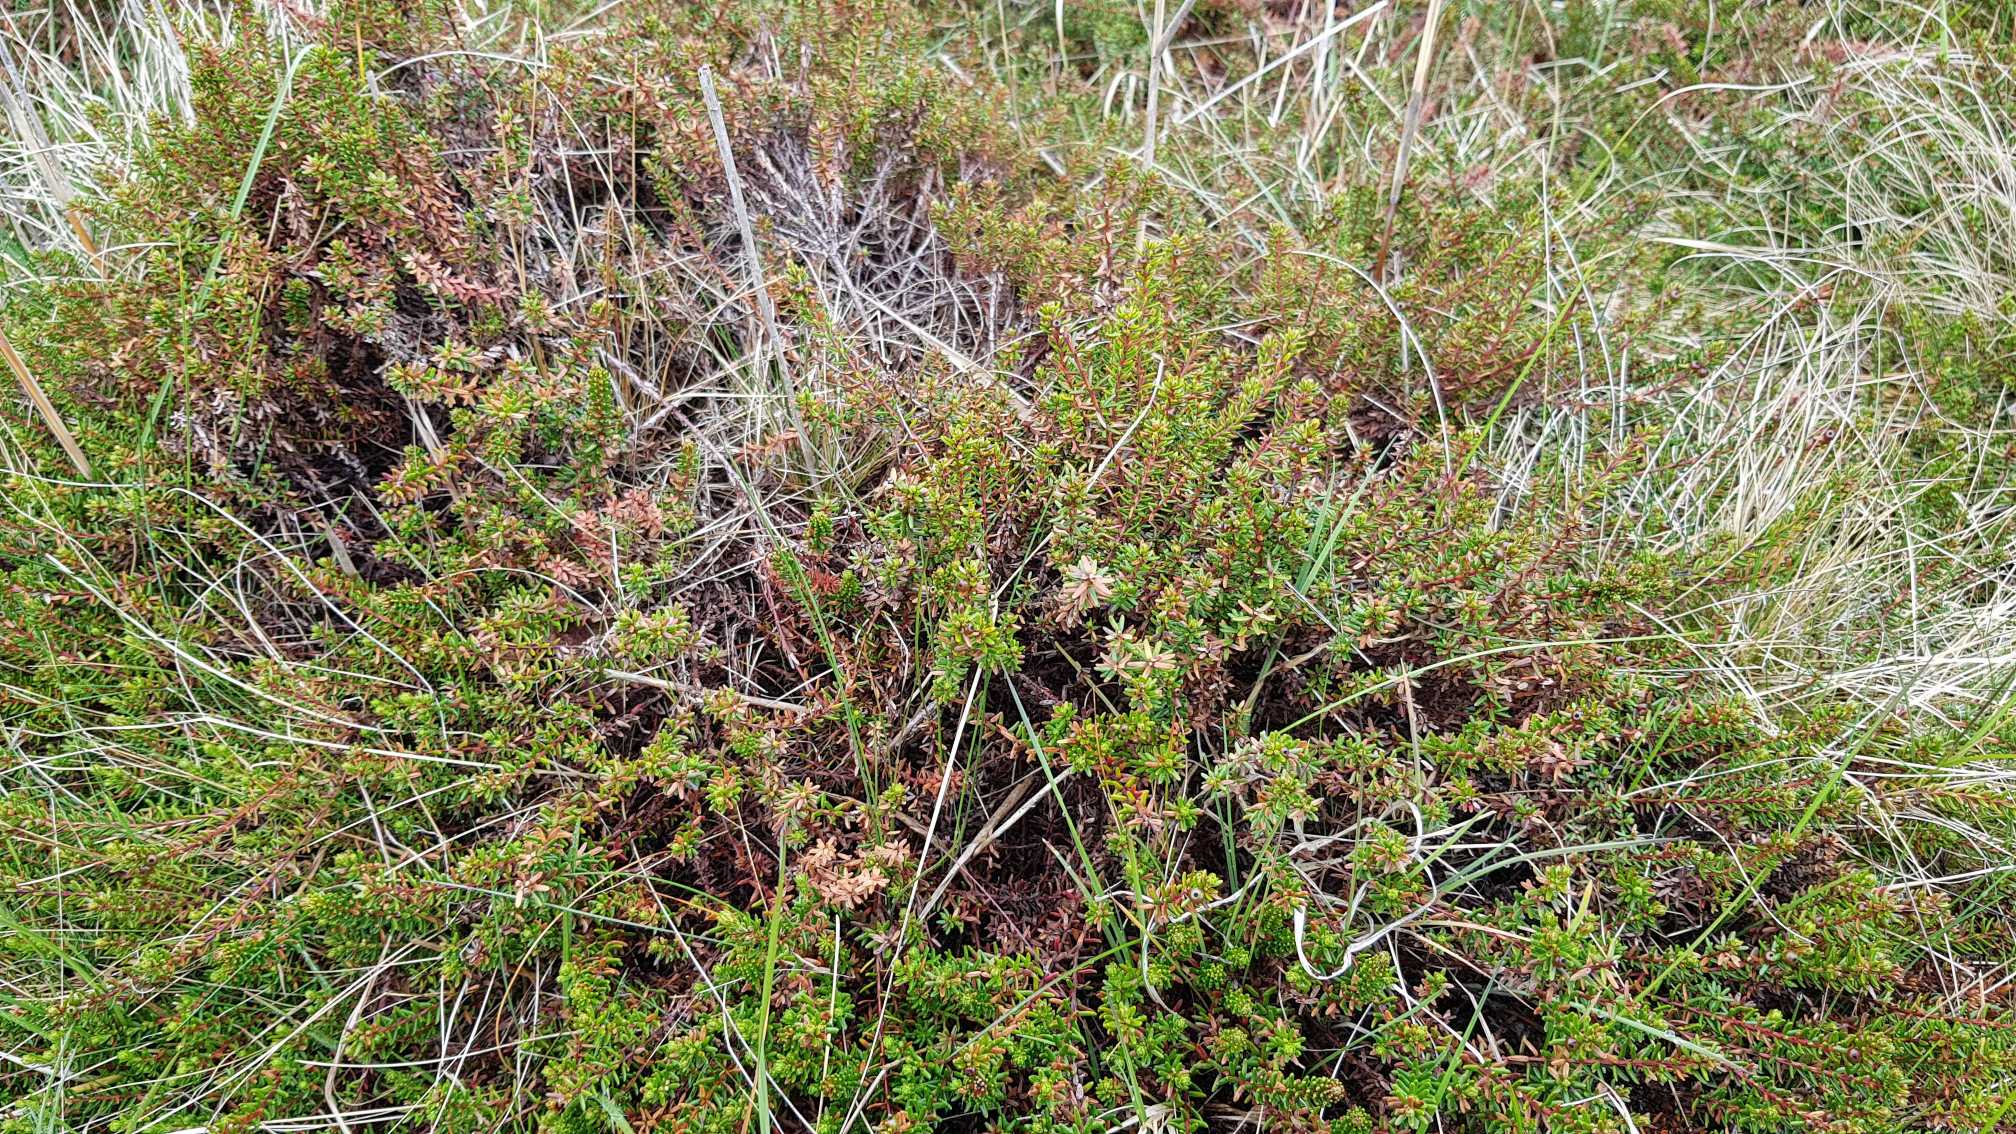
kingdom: Plantae
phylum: Tracheophyta
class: Magnoliopsida
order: Ericales
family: Ericaceae
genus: Empetrum
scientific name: Empetrum nigrum
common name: Revling
